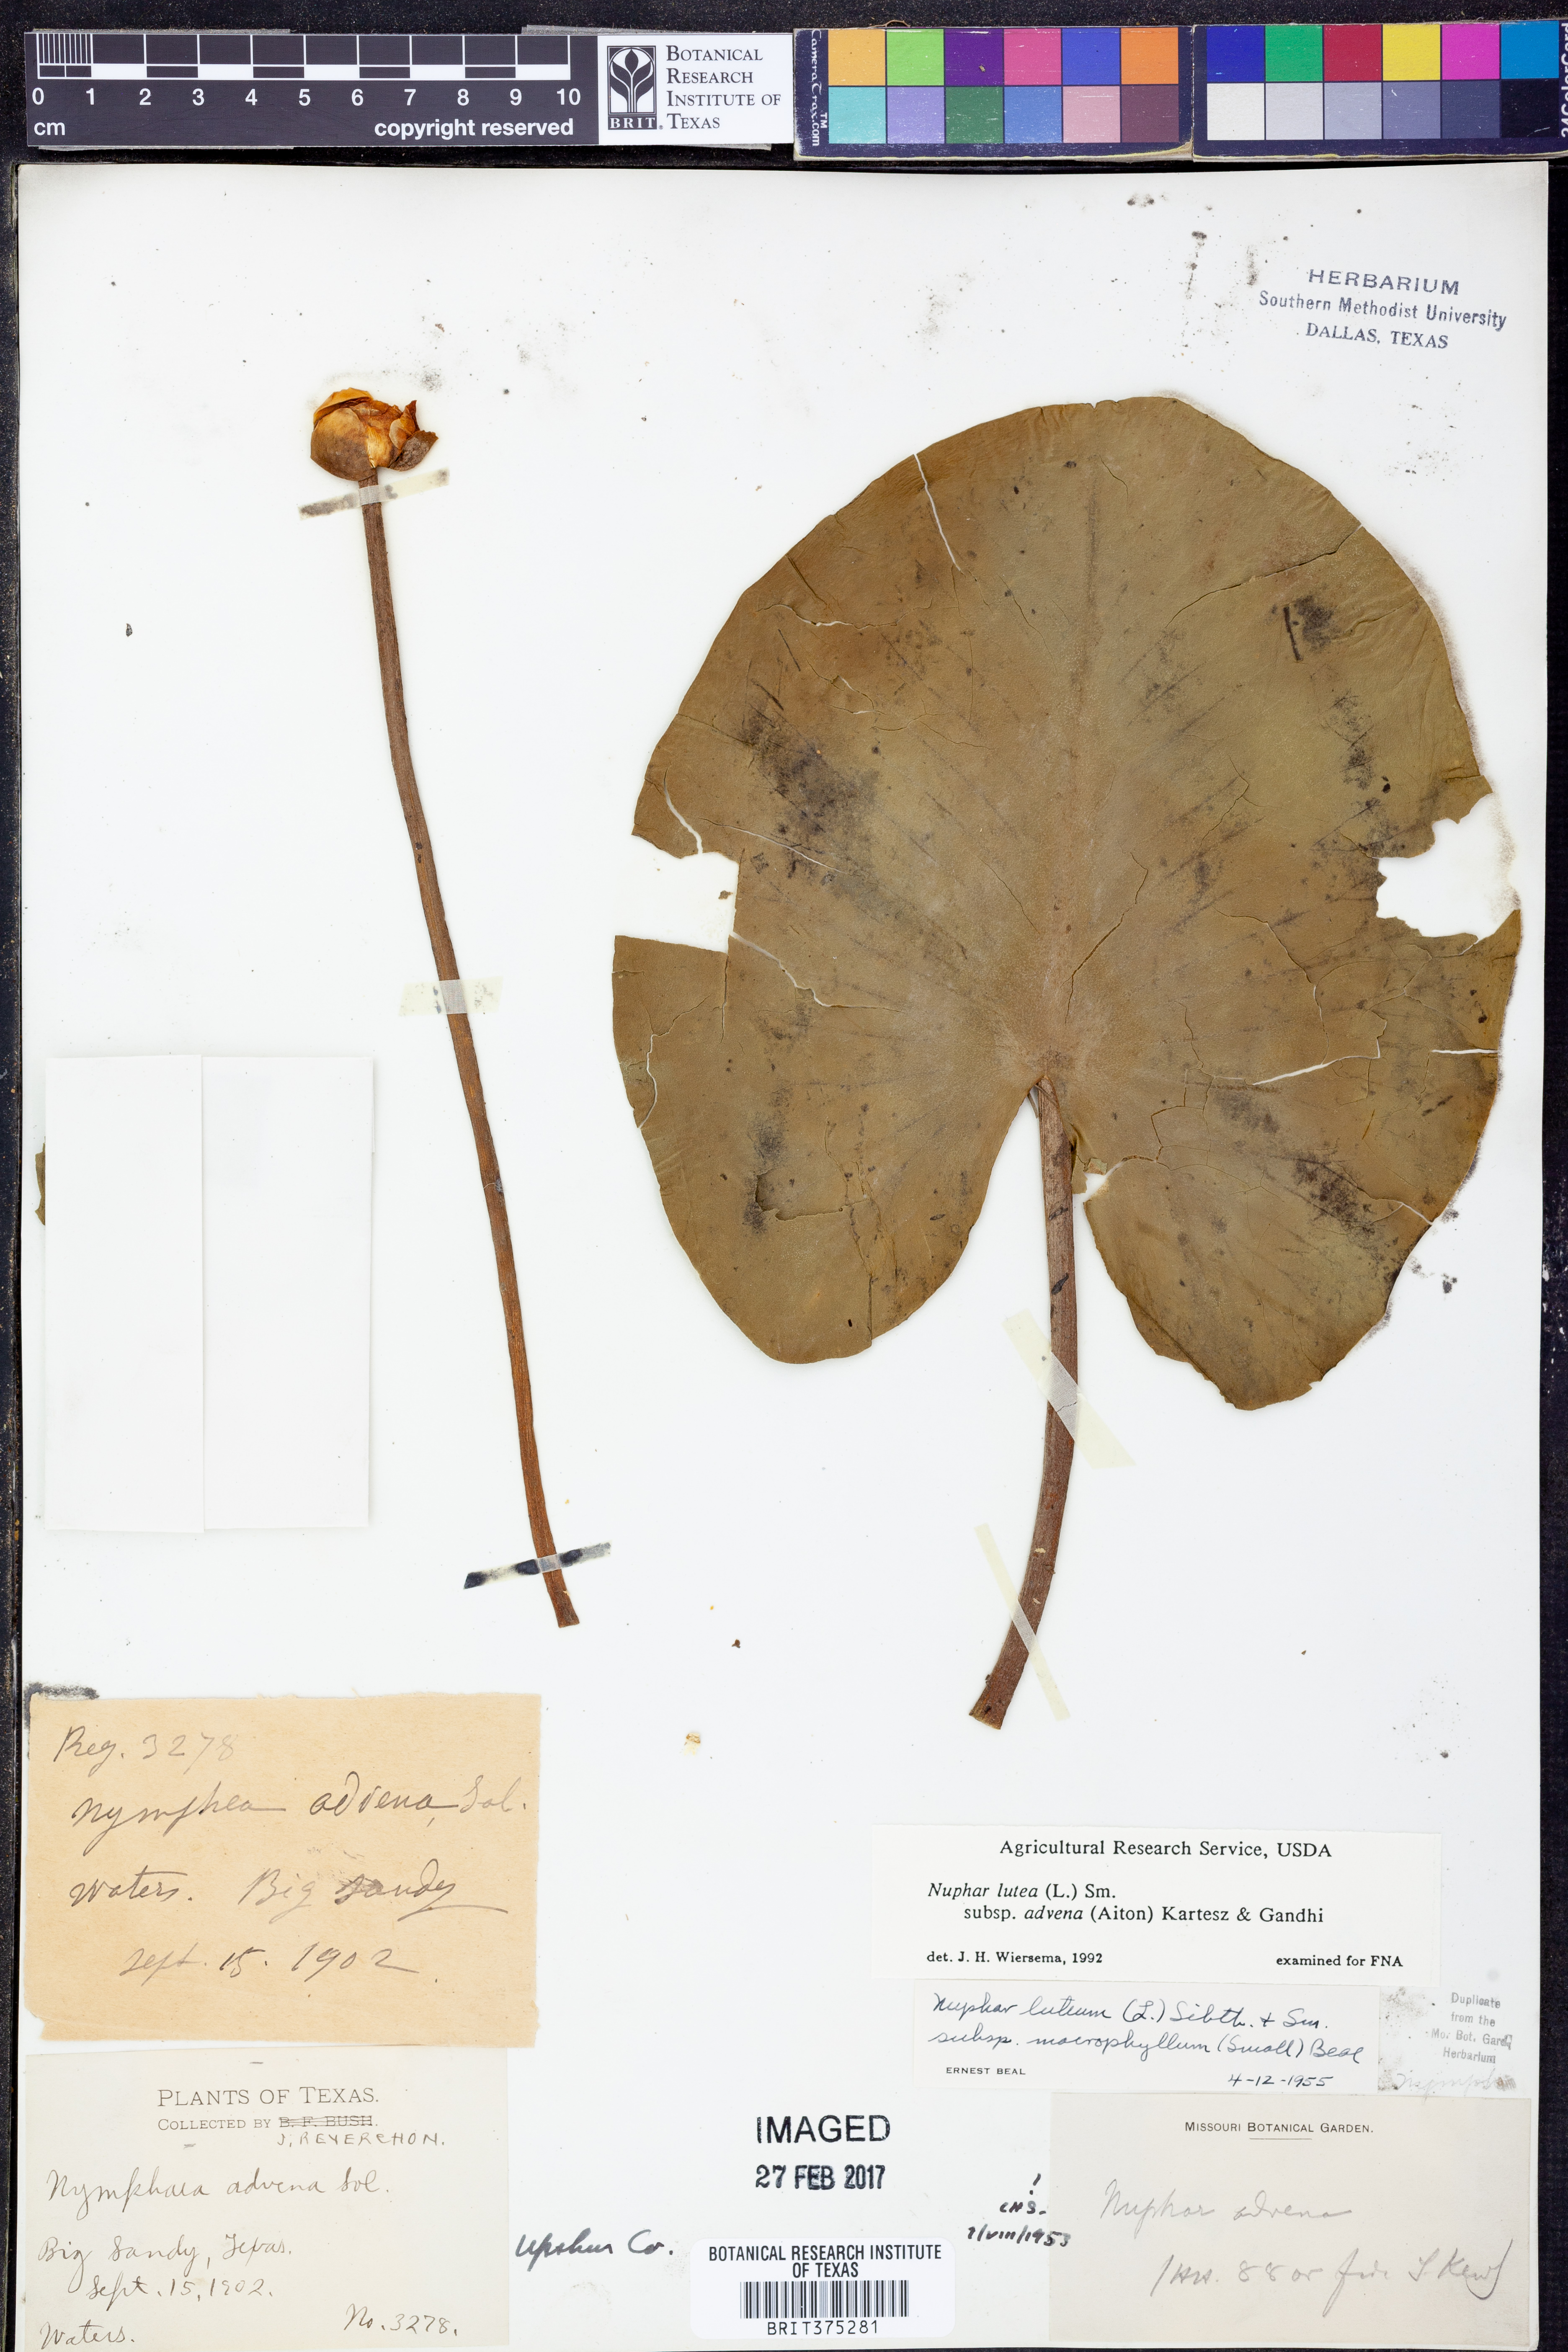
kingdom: Plantae
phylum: Tracheophyta
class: Magnoliopsida
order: Nymphaeales
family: Nymphaeaceae
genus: Nuphar
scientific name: Nuphar advena
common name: Spatter-dock
